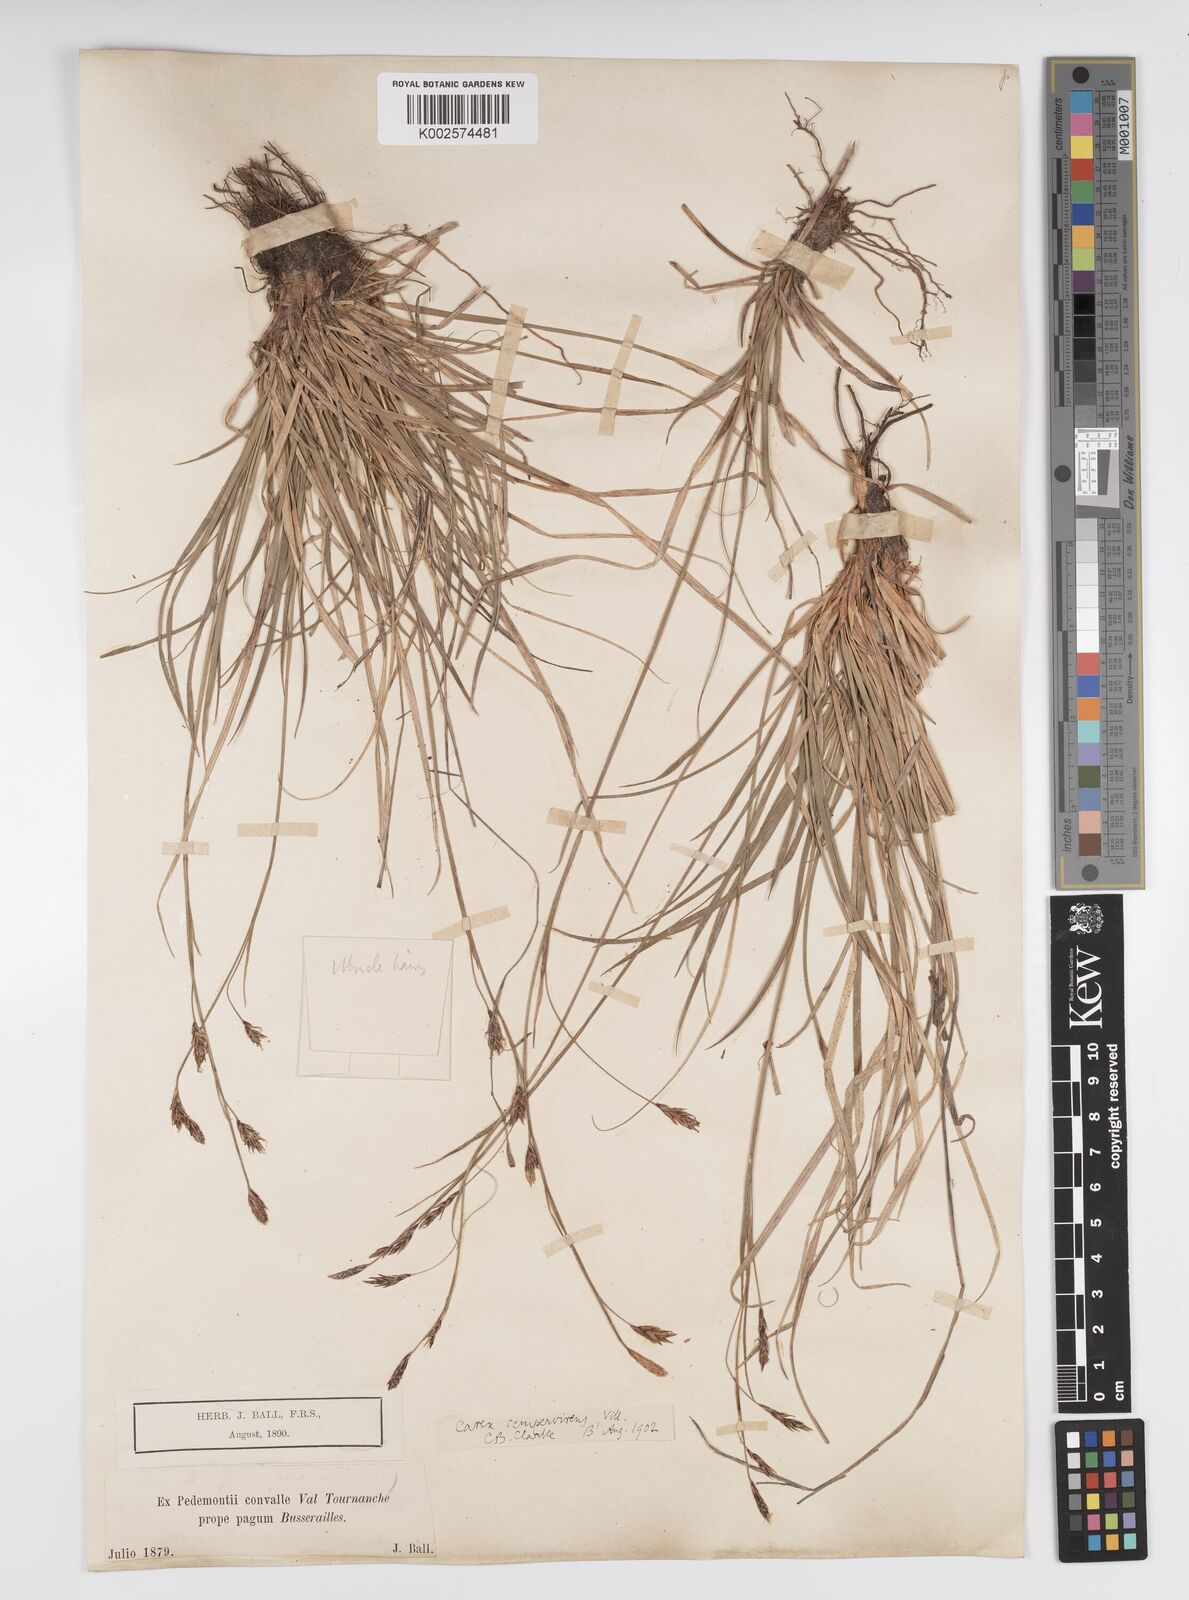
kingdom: Plantae
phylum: Tracheophyta
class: Liliopsida
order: Poales
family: Cyperaceae
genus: Carex
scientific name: Carex sempervirens
